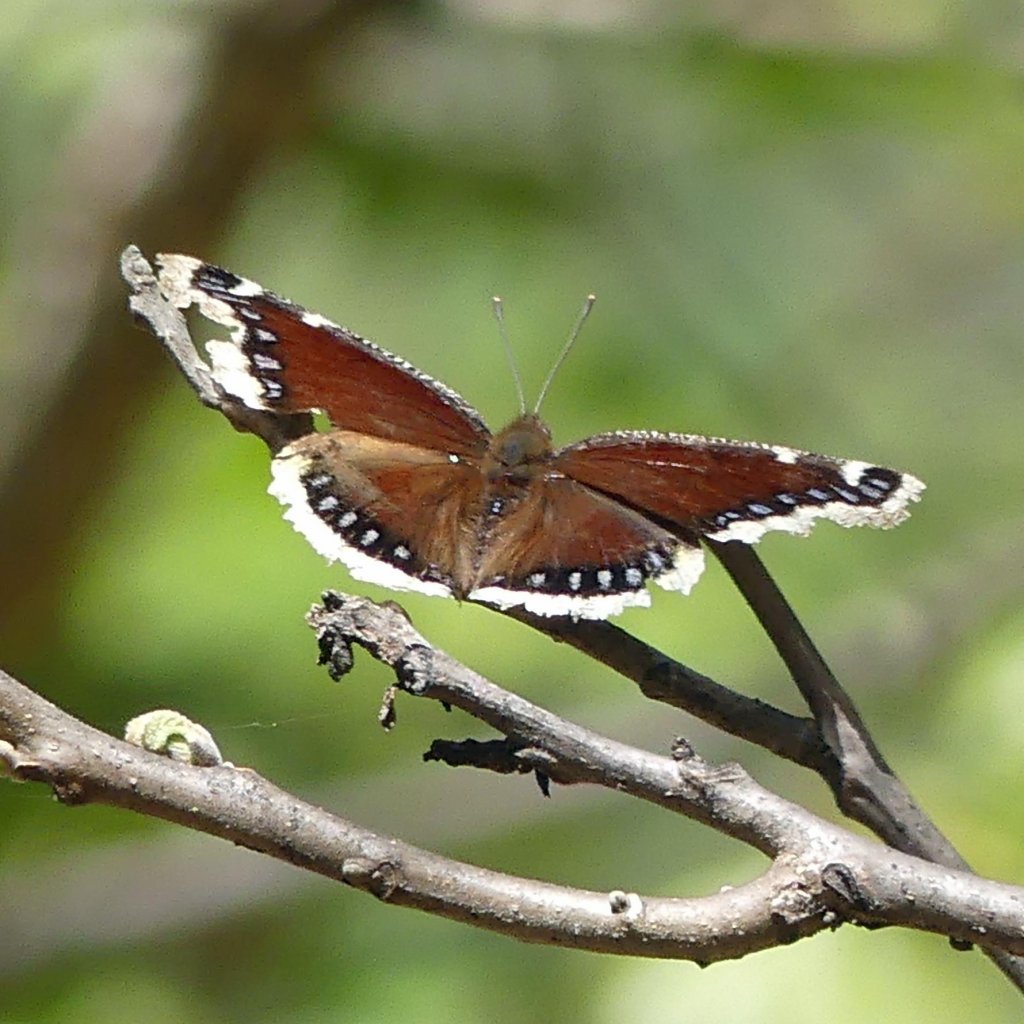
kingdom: Animalia
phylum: Arthropoda
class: Insecta
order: Lepidoptera
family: Nymphalidae
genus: Nymphalis
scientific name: Nymphalis antiopa
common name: Mourning Cloak
